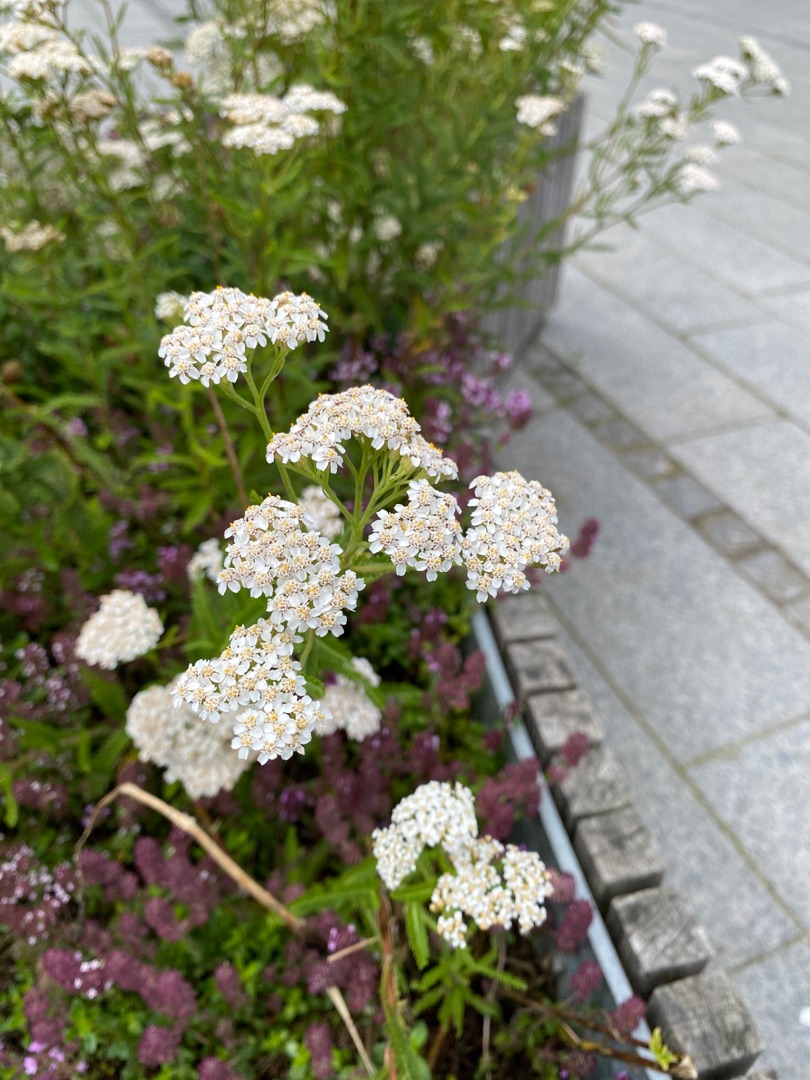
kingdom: Plantae
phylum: Tracheophyta
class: Magnoliopsida
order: Asterales
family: Asteraceae
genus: Achillea
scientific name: Achillea millefolium
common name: Almindelig røllike
